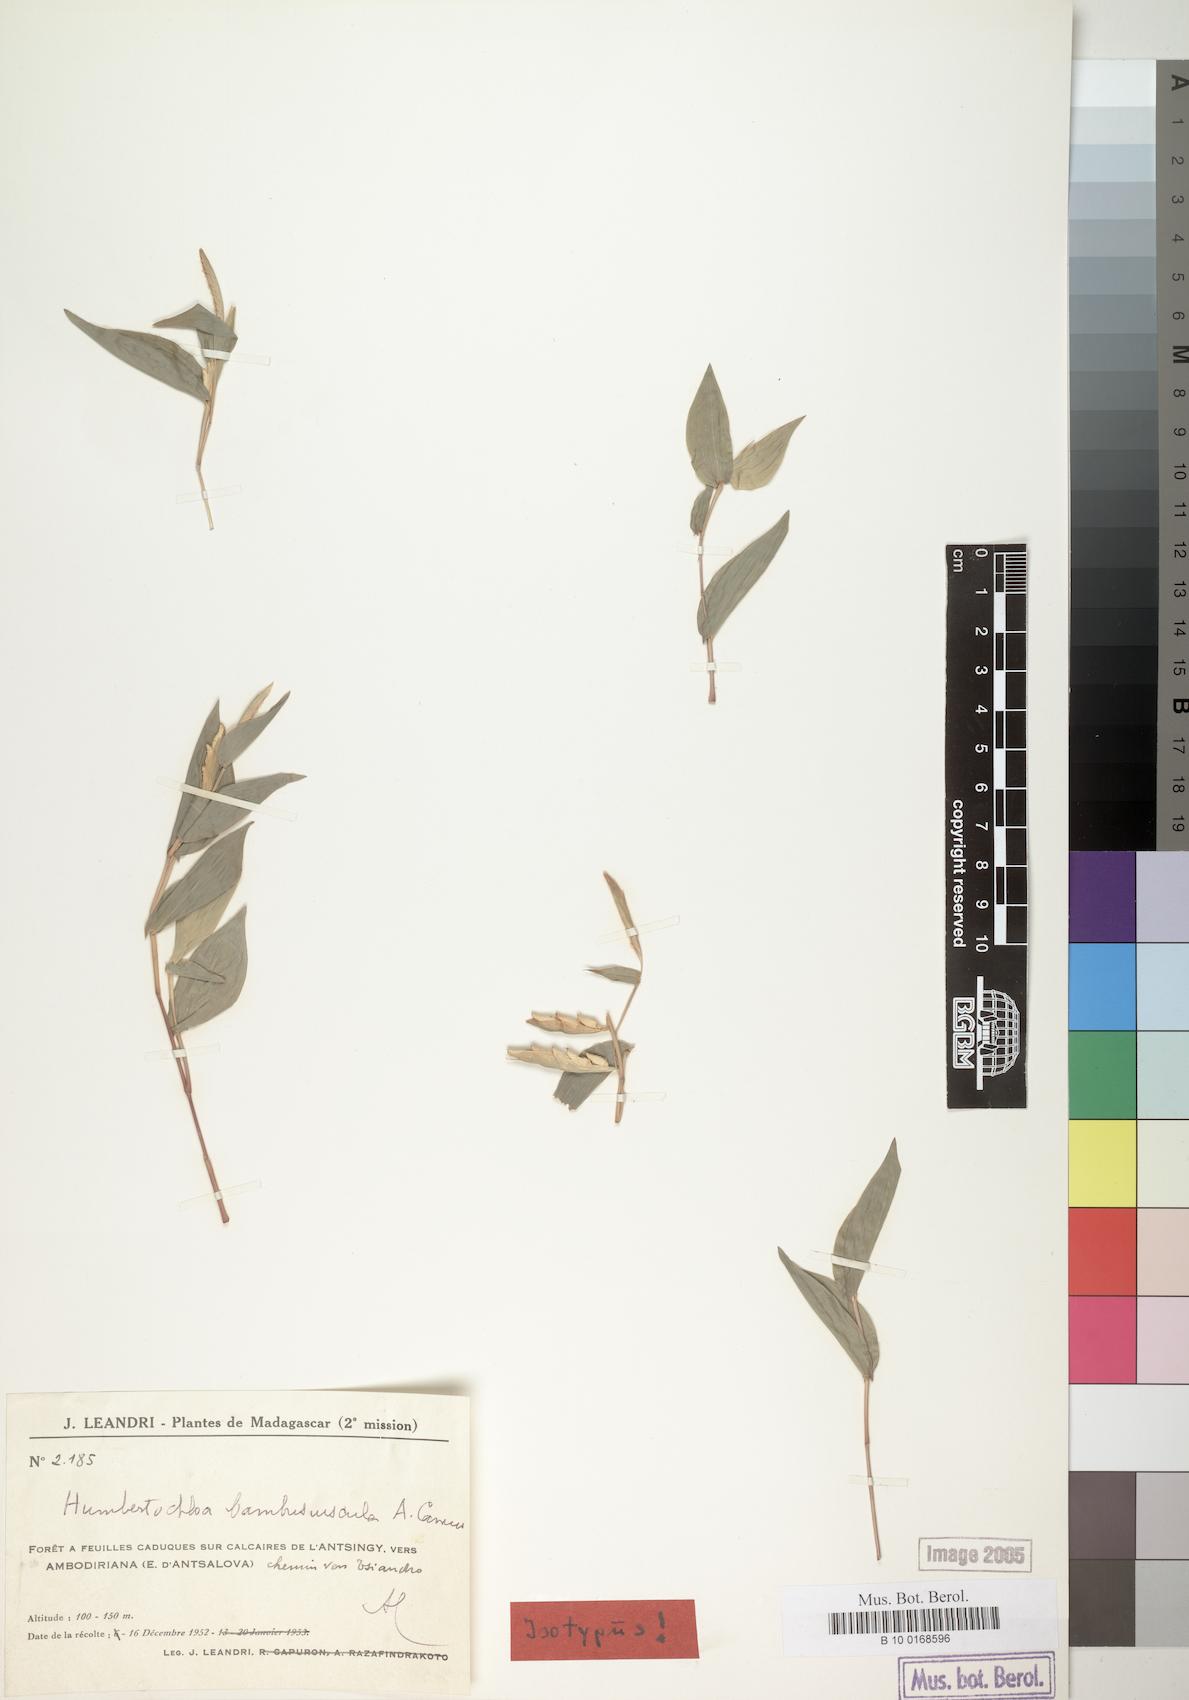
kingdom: Plantae
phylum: Tracheophyta
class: Liliopsida
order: Poales
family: Poaceae
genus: Humbertochloa
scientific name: Humbertochloa bambusiuscula
